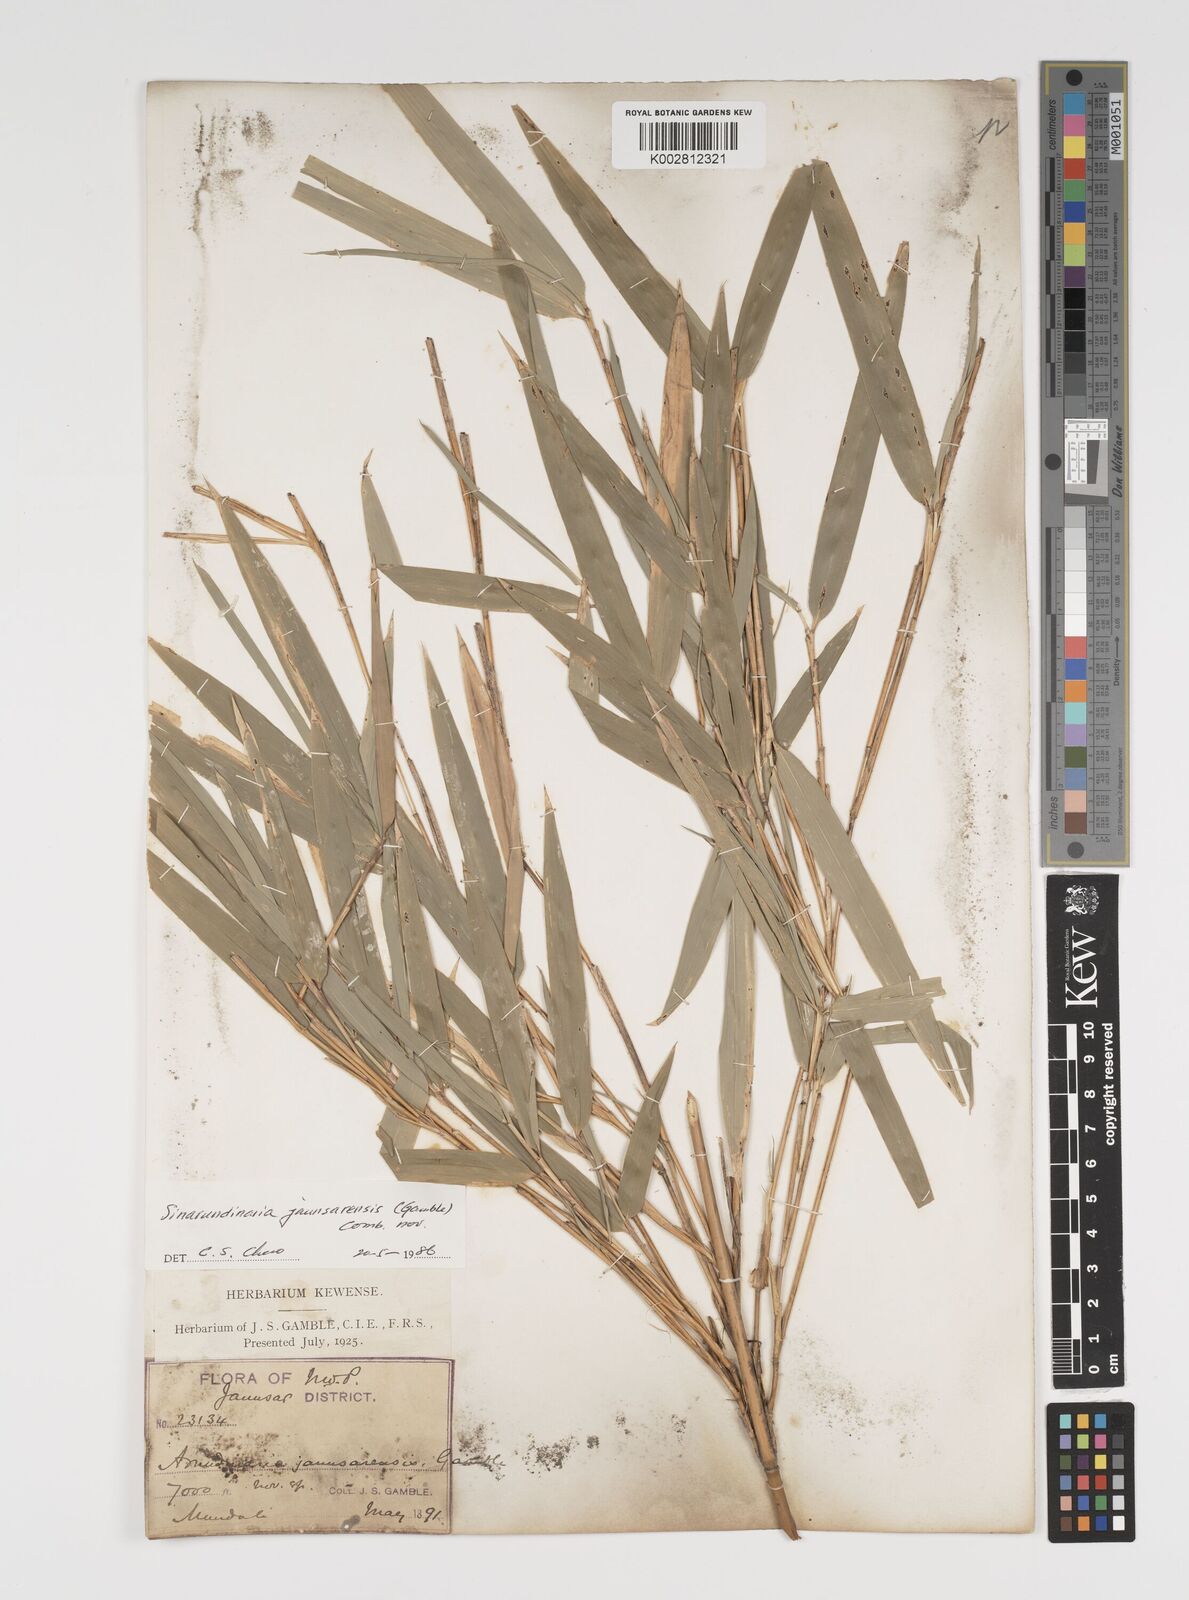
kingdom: Plantae
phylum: Tracheophyta
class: Liliopsida
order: Poales
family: Poaceae
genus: Yushania
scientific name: Yushania anceps
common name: Indian fountain-bamboo
